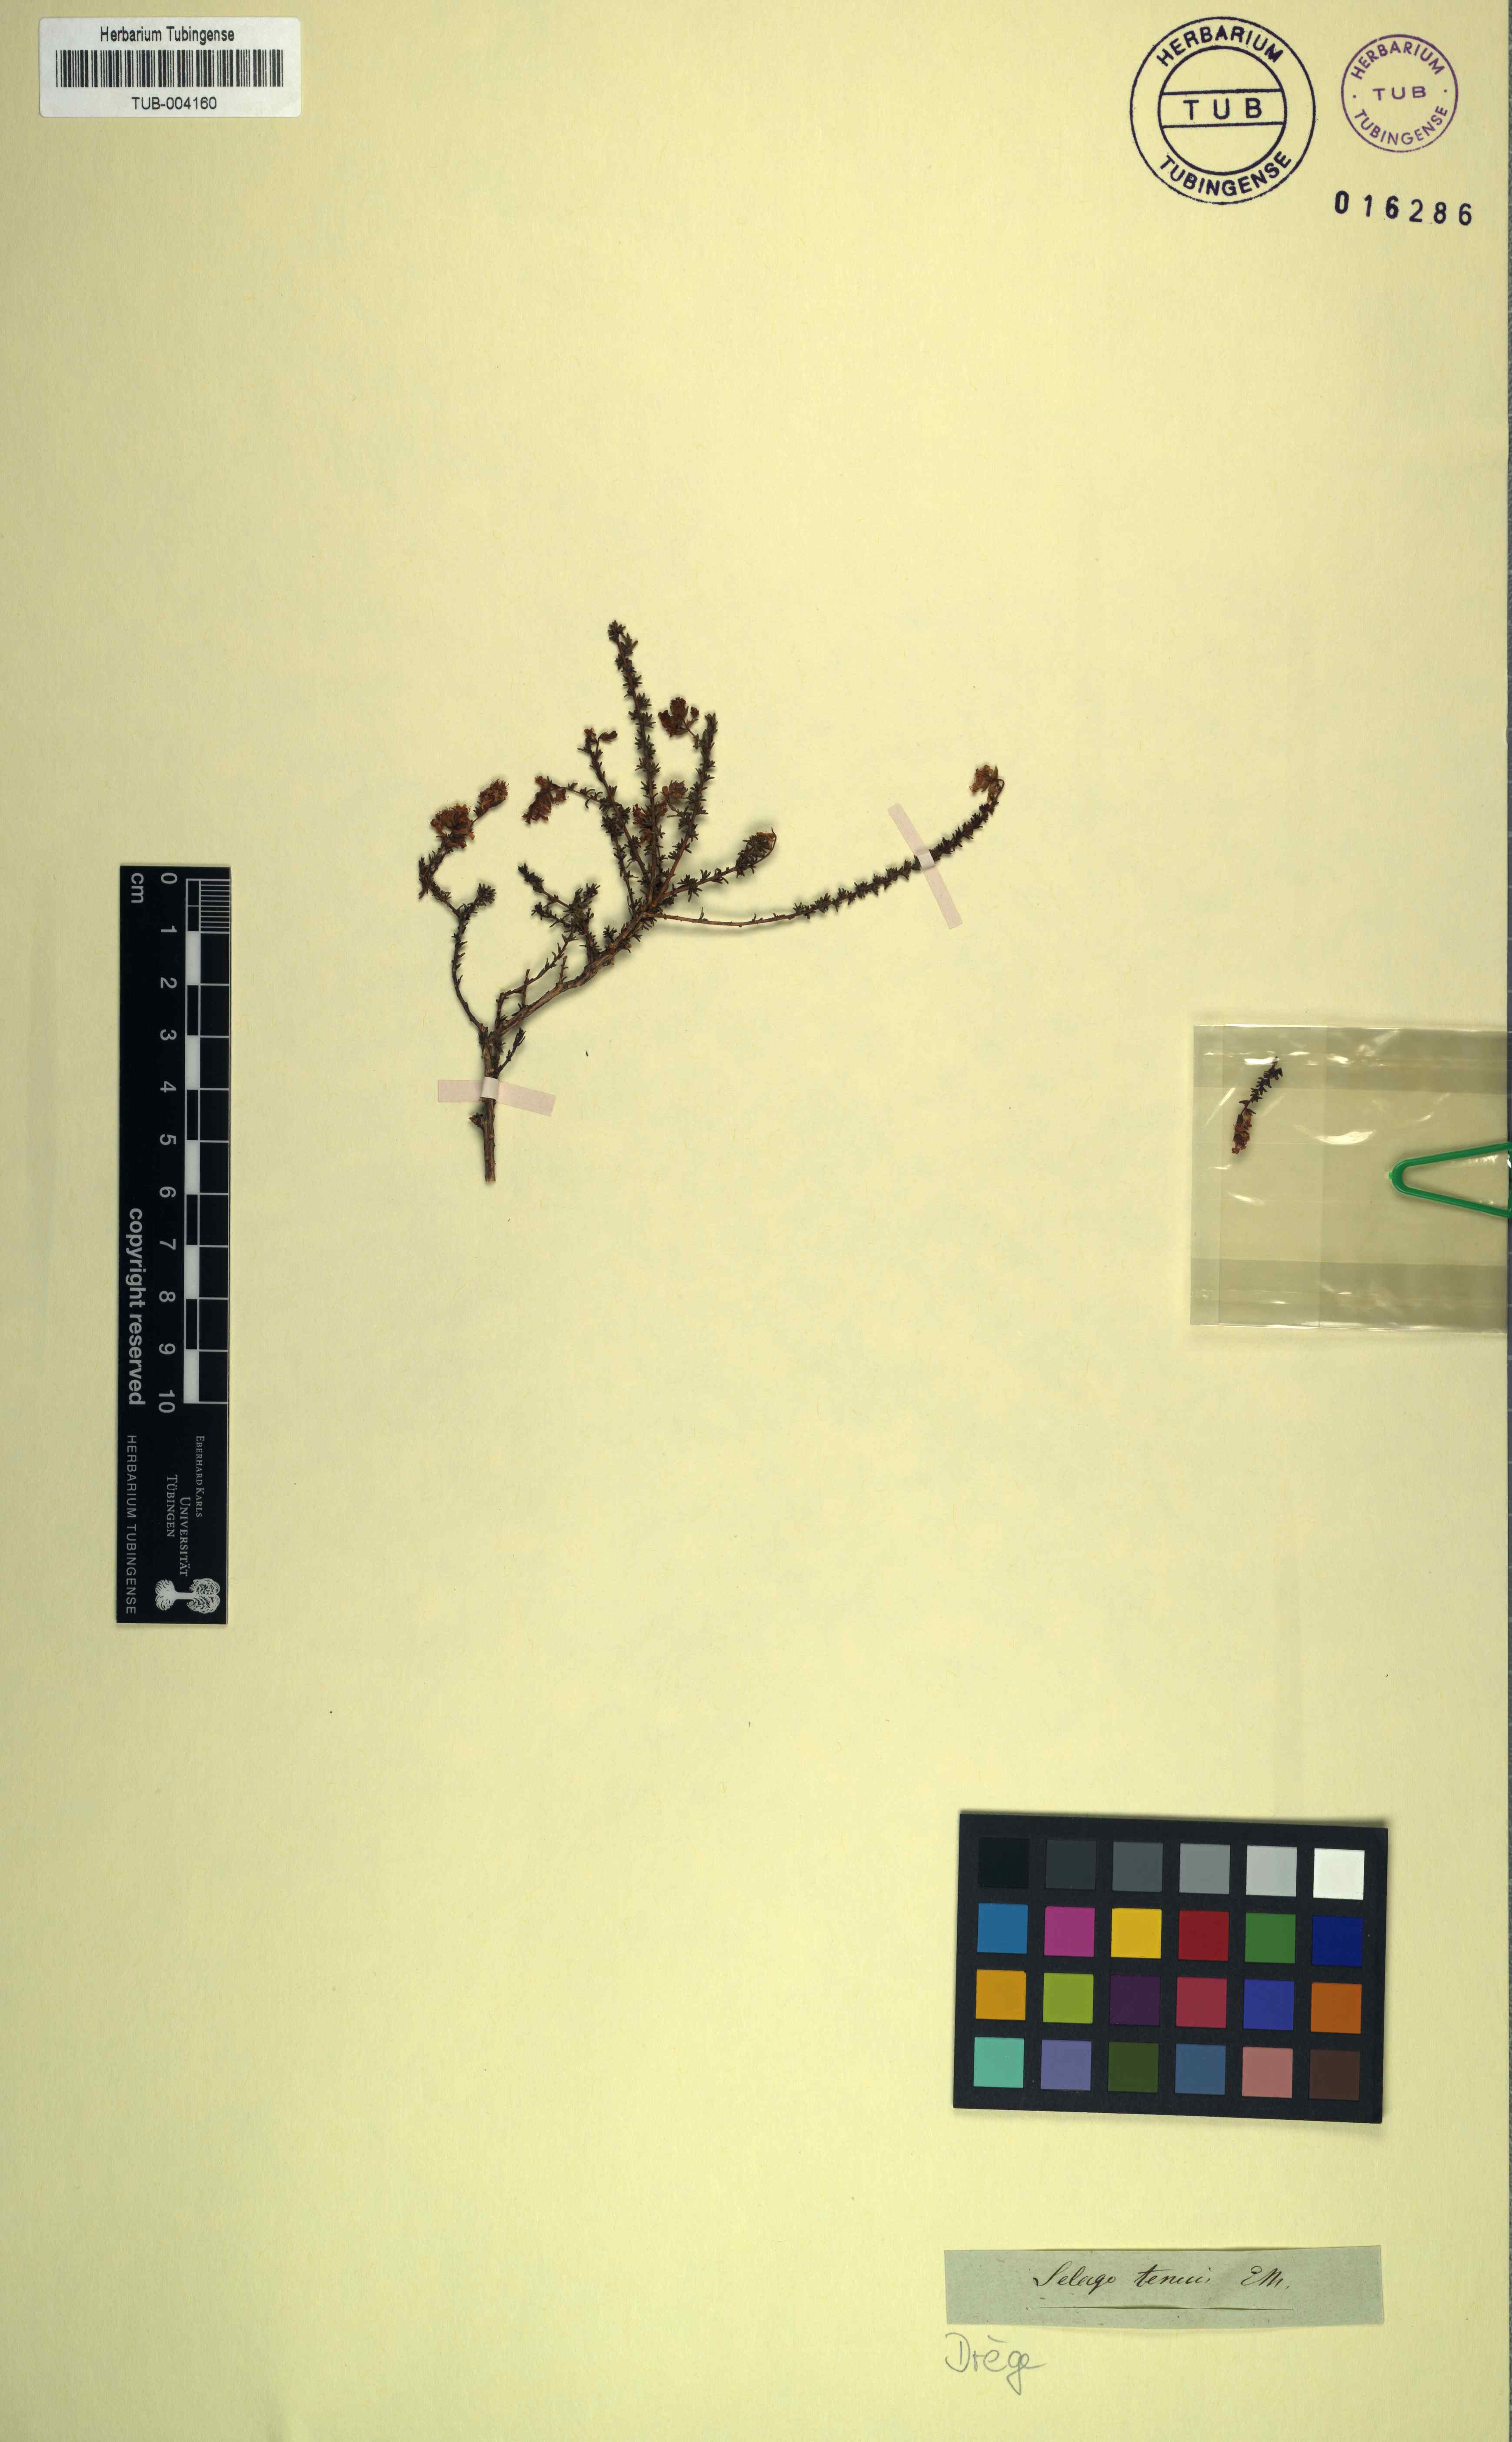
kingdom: Plantae
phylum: Tracheophyta
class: Magnoliopsida
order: Lamiales
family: Scrophulariaceae
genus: Selago
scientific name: Selago tenuis
